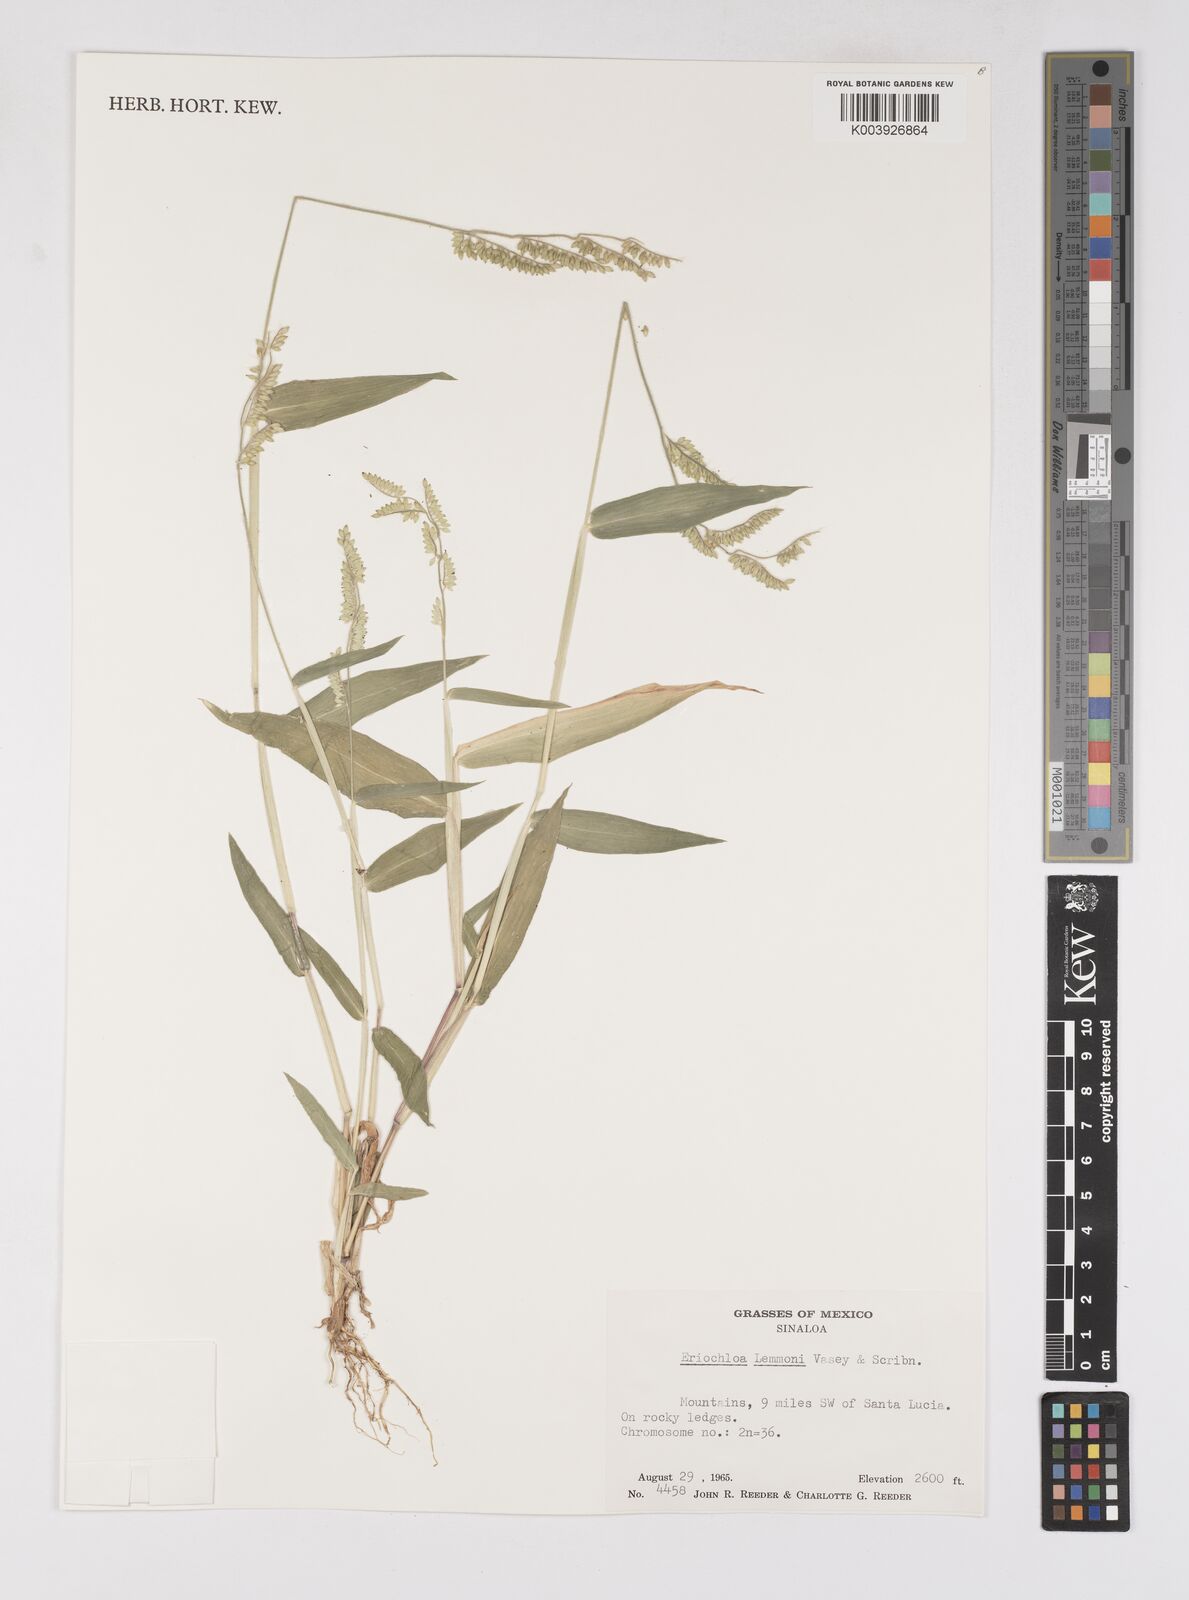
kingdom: Plantae
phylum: Tracheophyta
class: Liliopsida
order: Poales
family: Poaceae
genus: Eriochloa
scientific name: Eriochloa lemmonii
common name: Canyon cup grass
